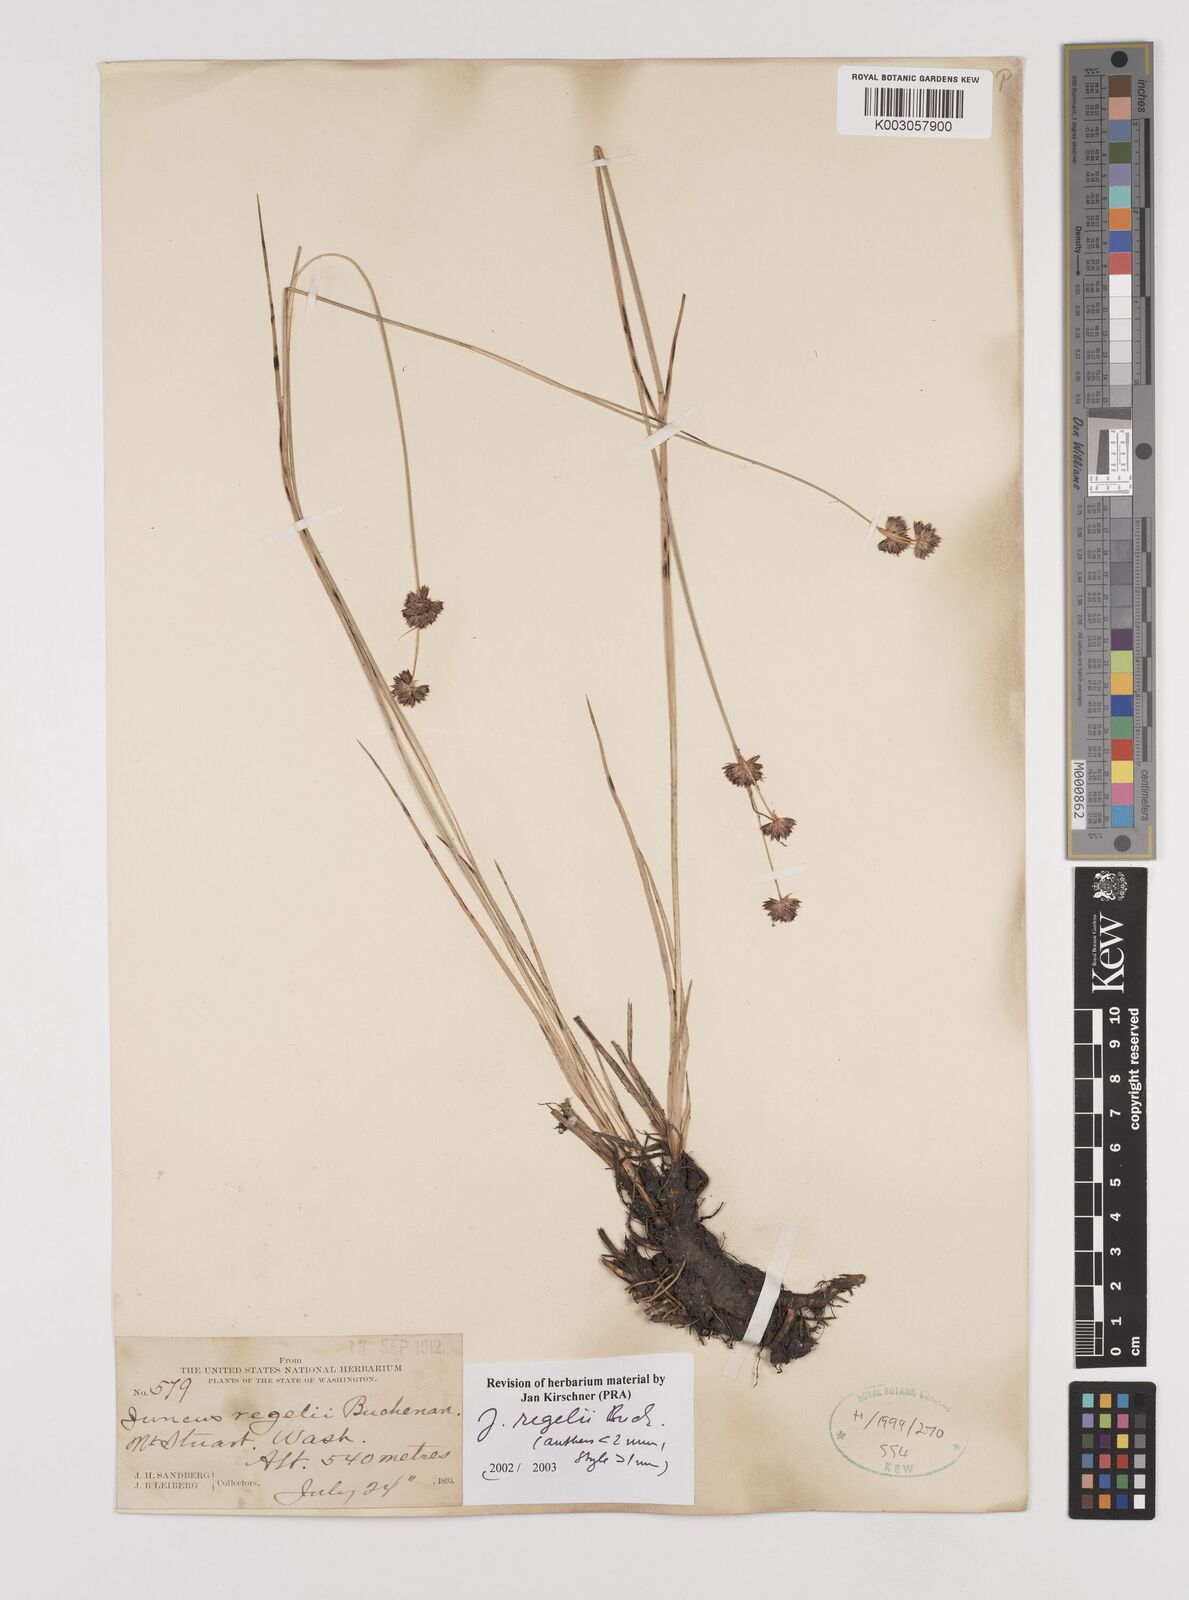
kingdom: Plantae
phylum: Tracheophyta
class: Liliopsida
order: Poales
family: Juncaceae
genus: Juncus
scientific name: Juncus regelii
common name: Regel's rush
